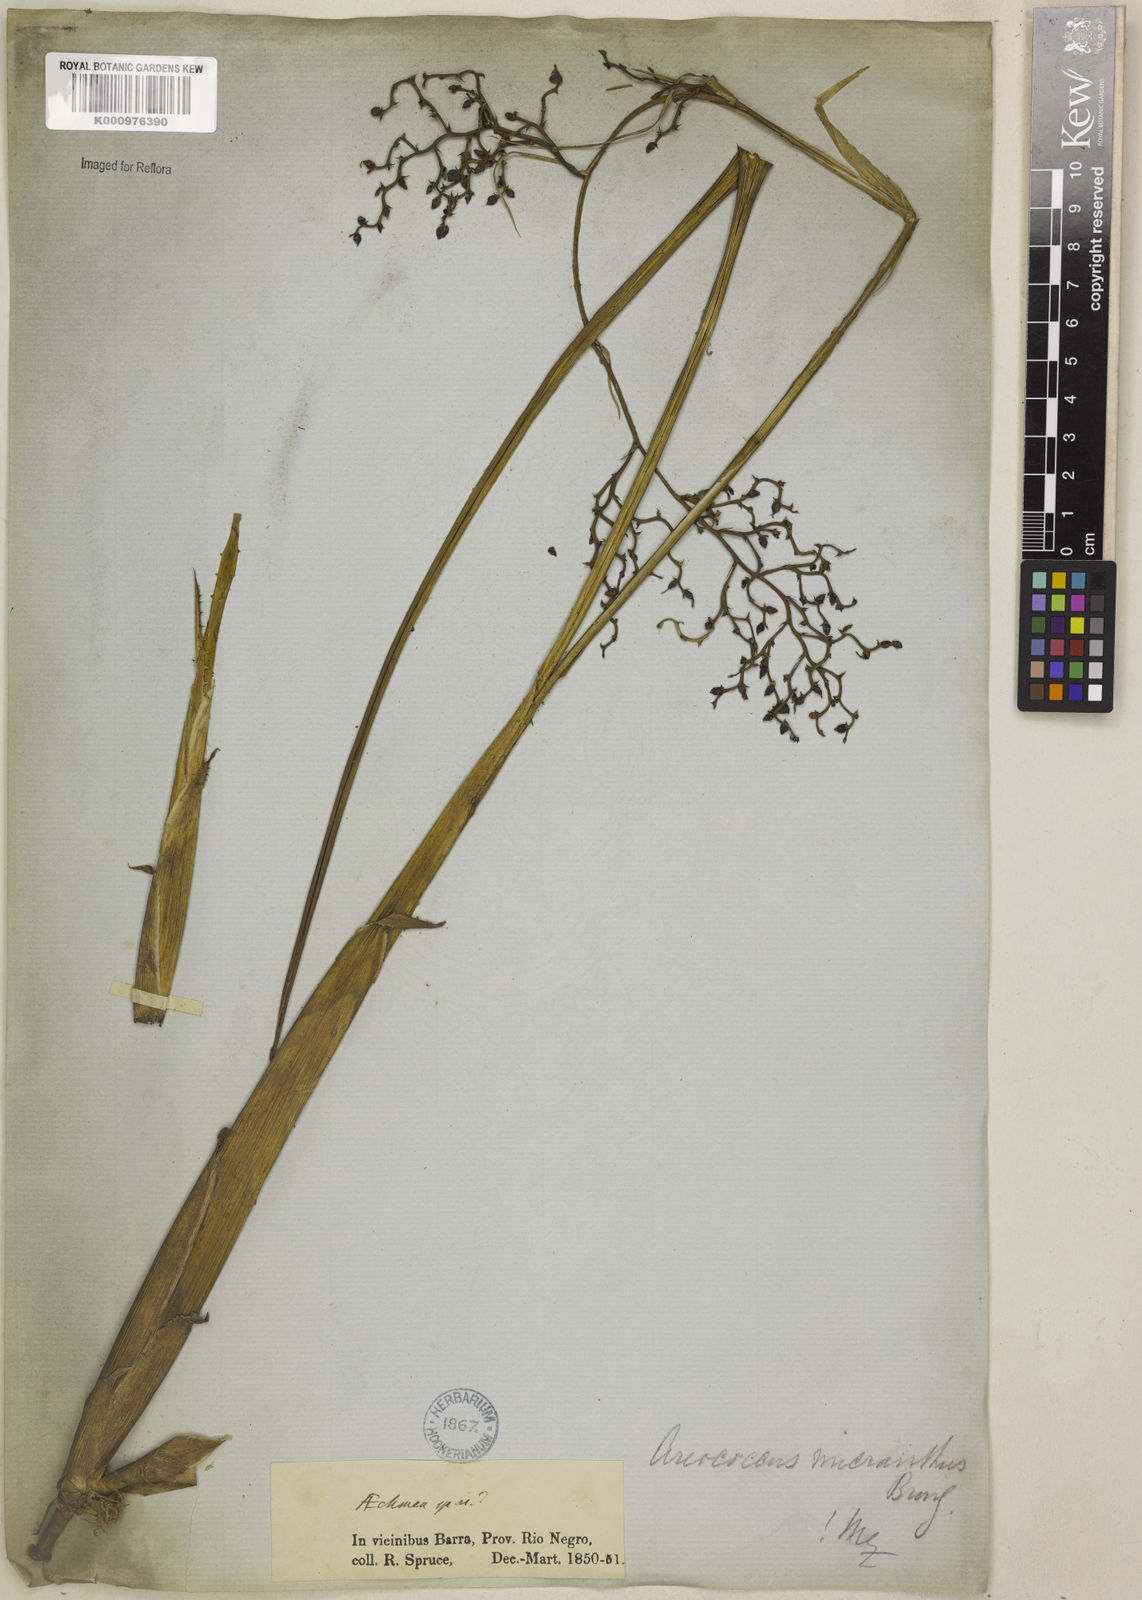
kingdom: Plantae
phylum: Tracheophyta
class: Liliopsida
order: Poales
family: Bromeliaceae
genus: Araeococcus
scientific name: Araeococcus micranthus
